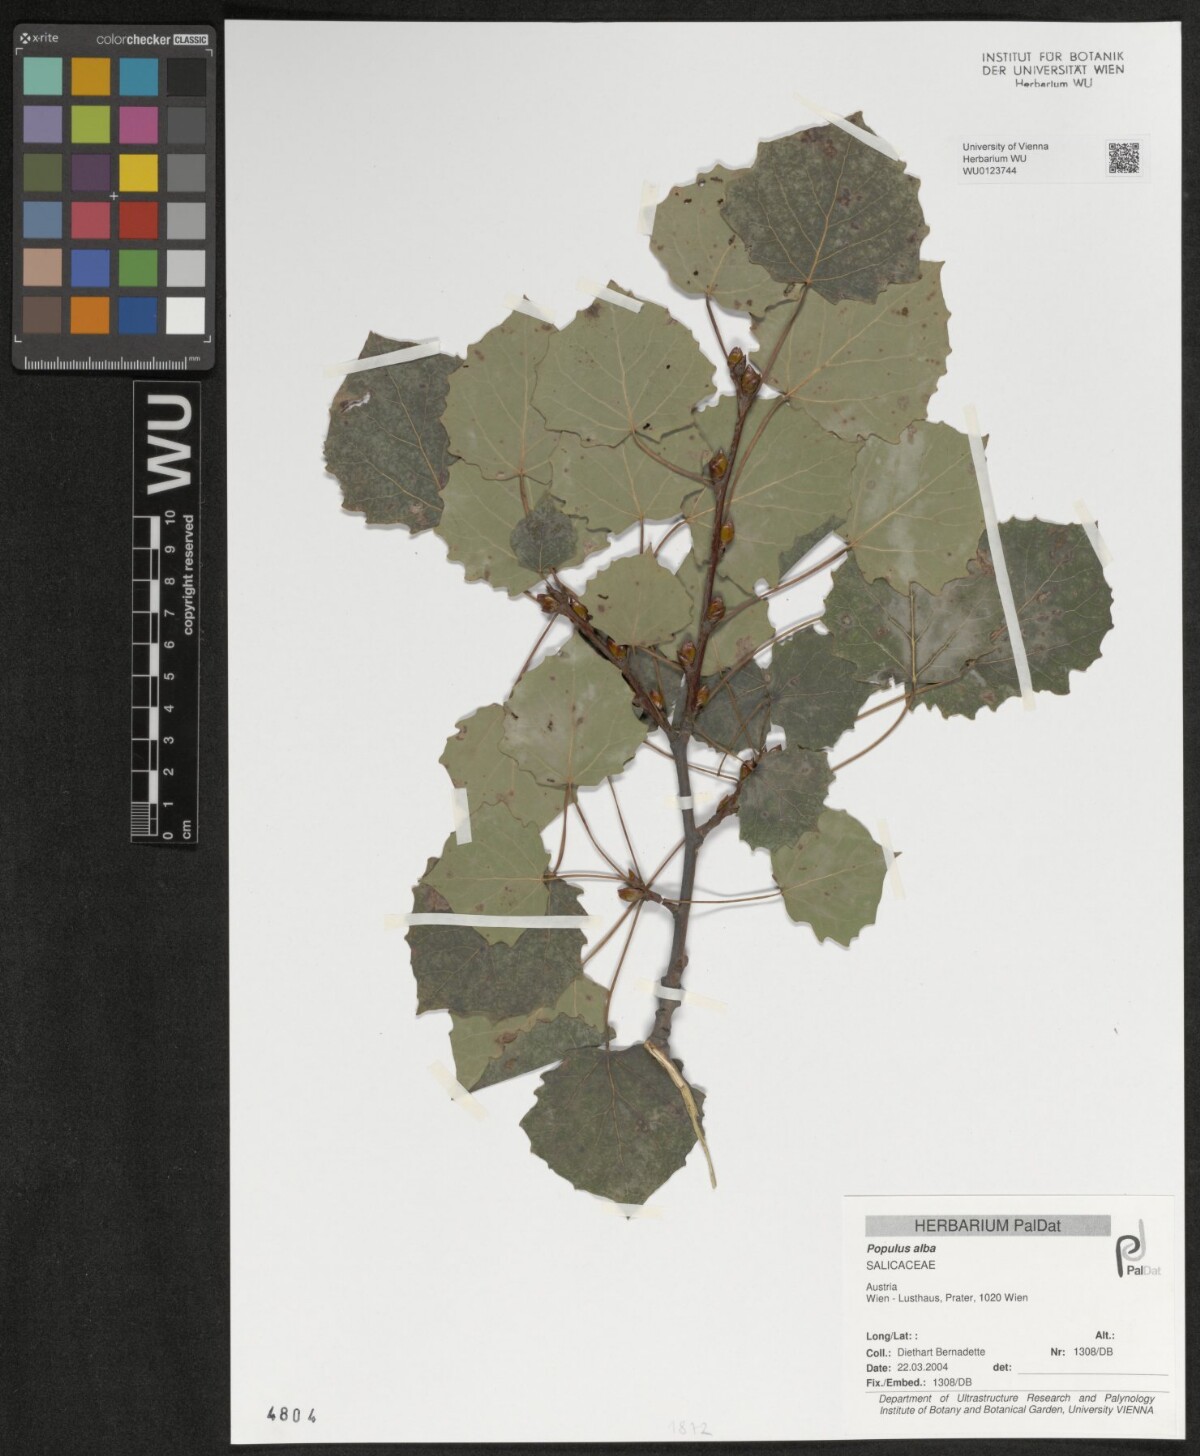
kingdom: Plantae
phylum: Tracheophyta
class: Magnoliopsida
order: Malpighiales
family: Salicaceae
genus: Populus
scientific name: Populus alba
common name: White poplar
